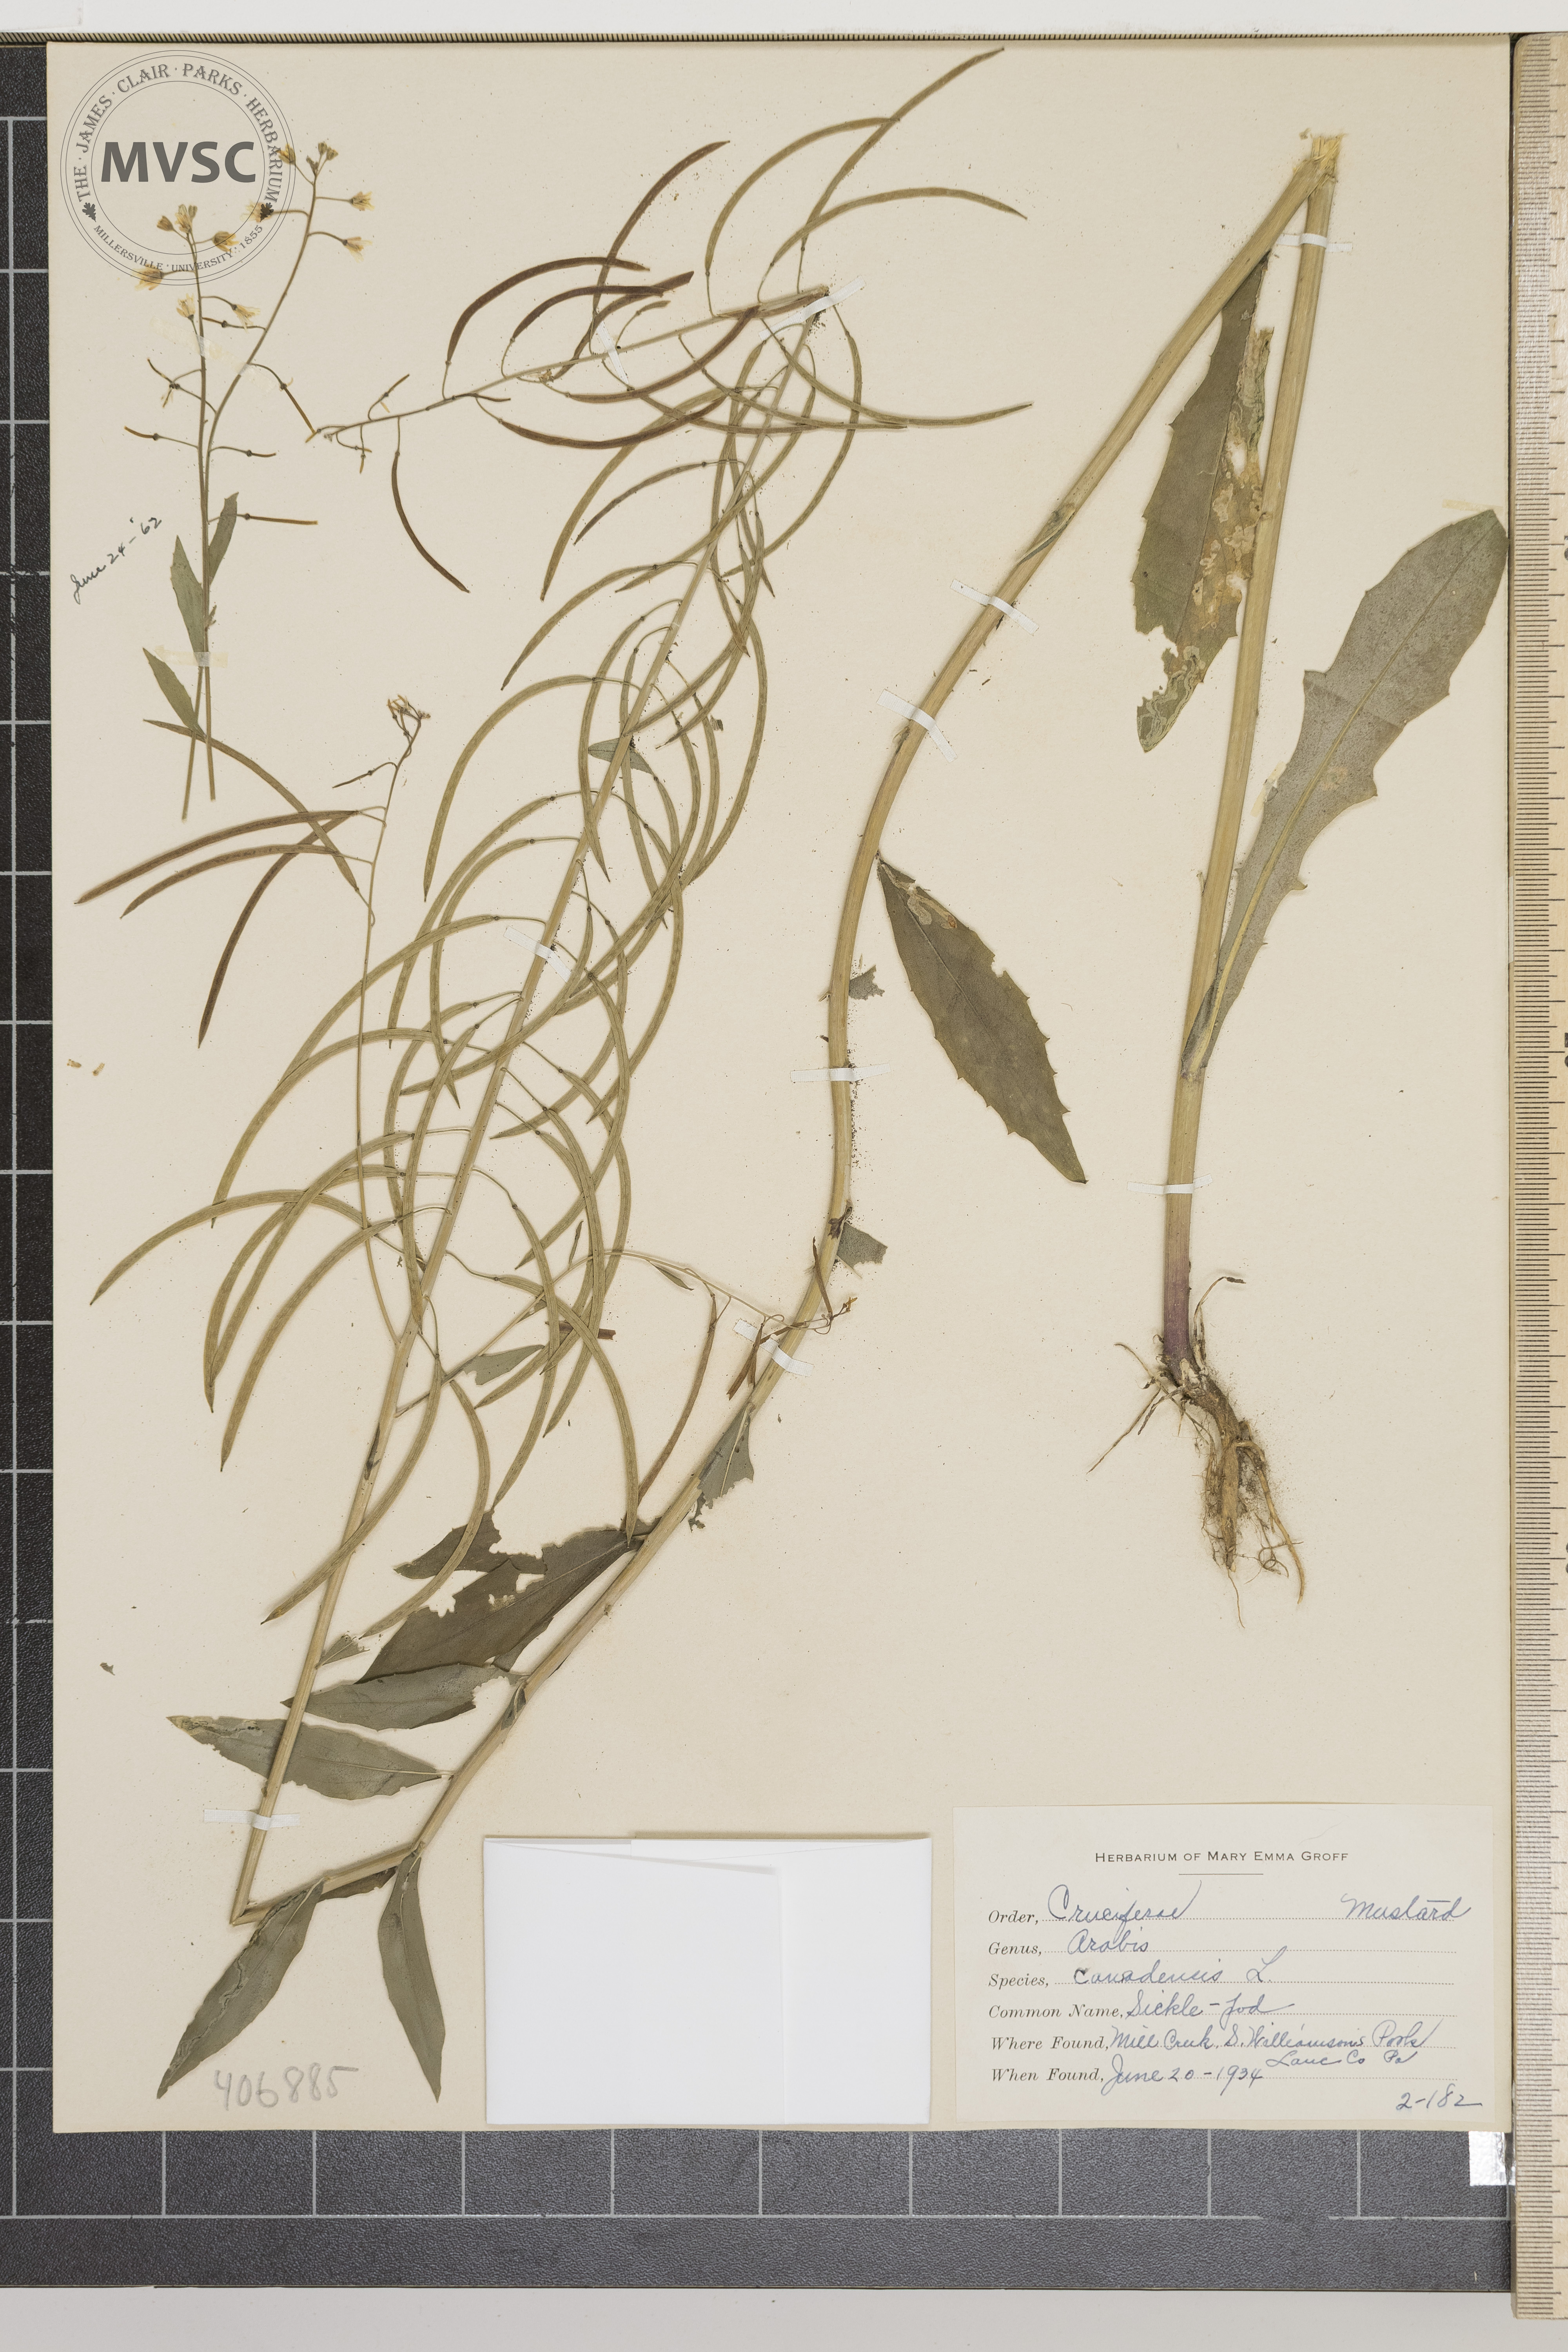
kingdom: Plantae
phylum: Tracheophyta
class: Magnoliopsida
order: Brassicales
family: Brassicaceae
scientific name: Brassicaceae
